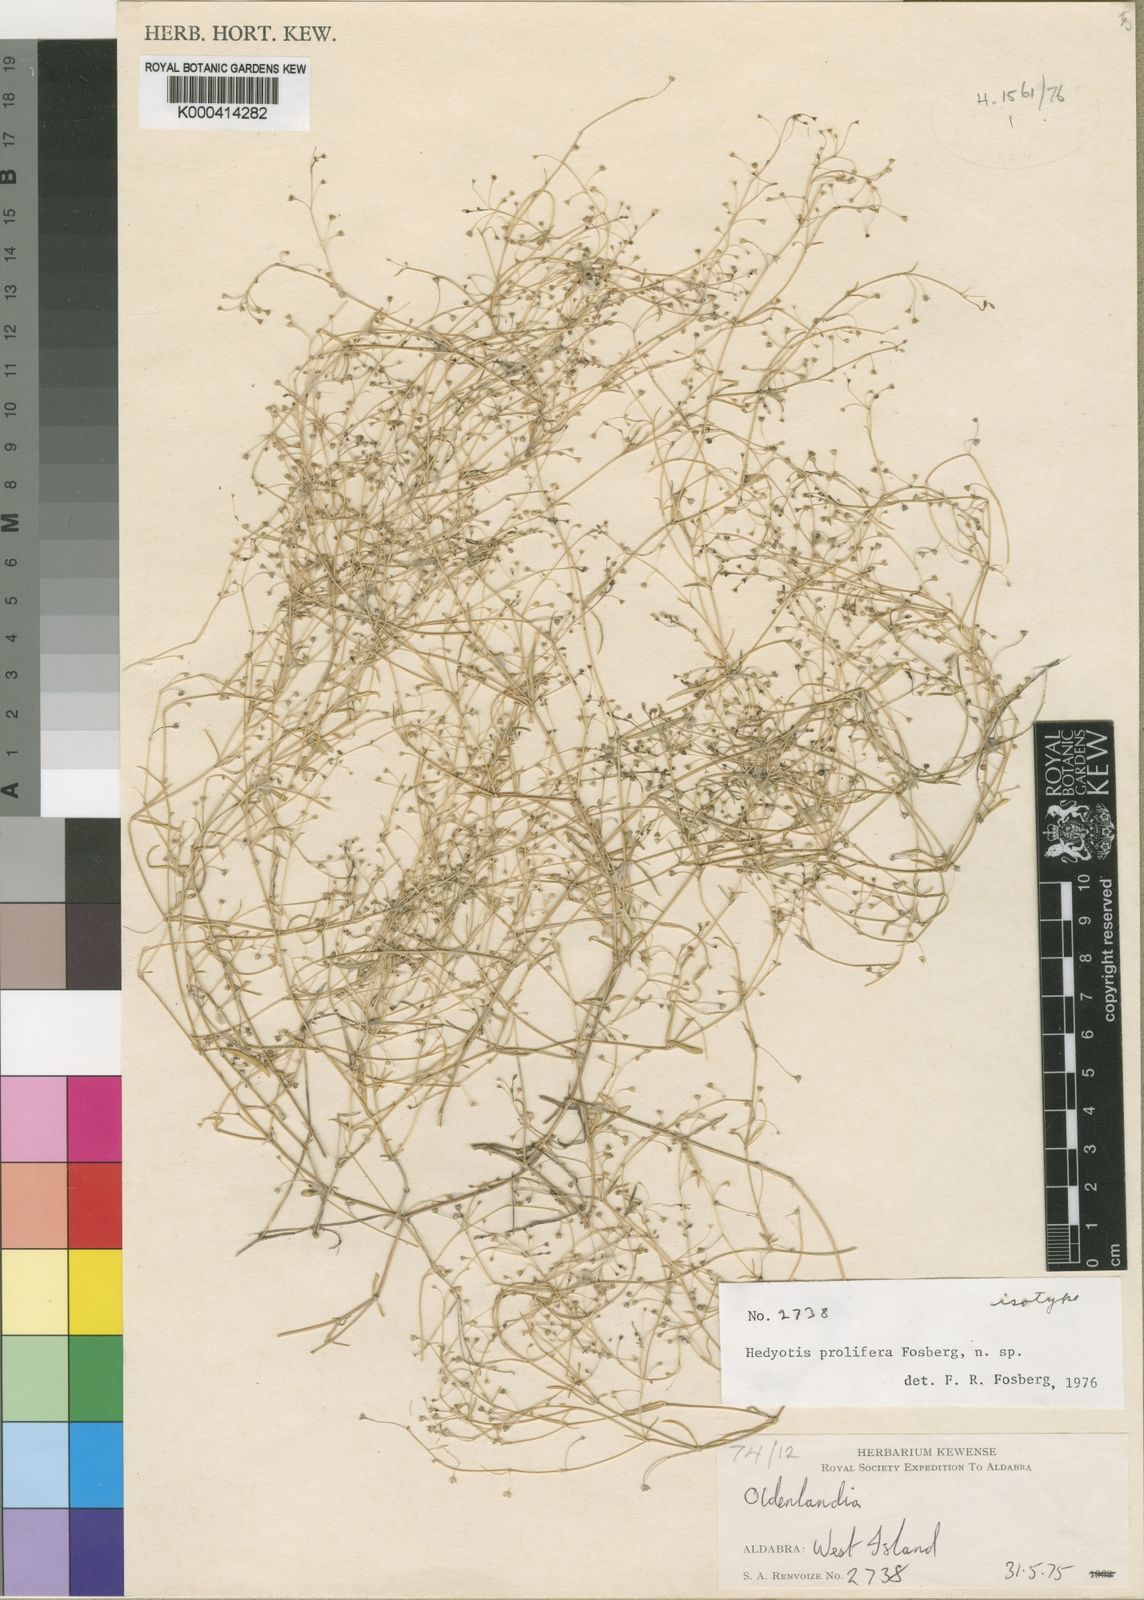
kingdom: Plantae
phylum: Tracheophyta
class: Magnoliopsida
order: Gentianales
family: Rubiaceae
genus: Oldenlandia
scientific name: Oldenlandia
